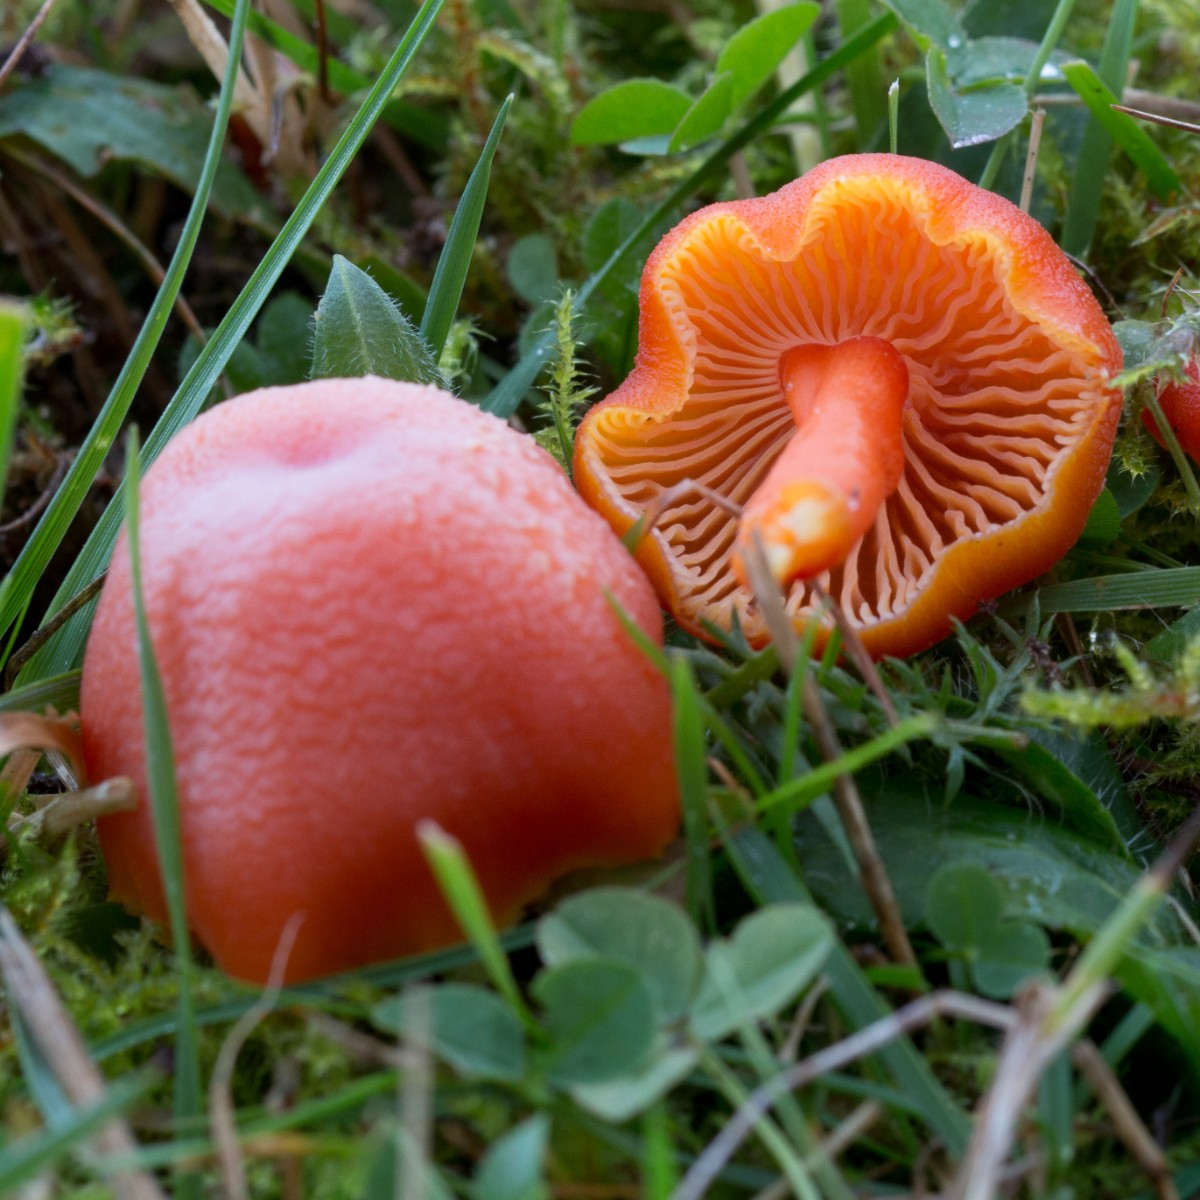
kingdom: Fungi
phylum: Basidiomycota
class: Agaricomycetes
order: Agaricales
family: Hygrophoraceae
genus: Hygrocybe
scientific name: Hygrocybe miniata
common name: mønje-vokshat
